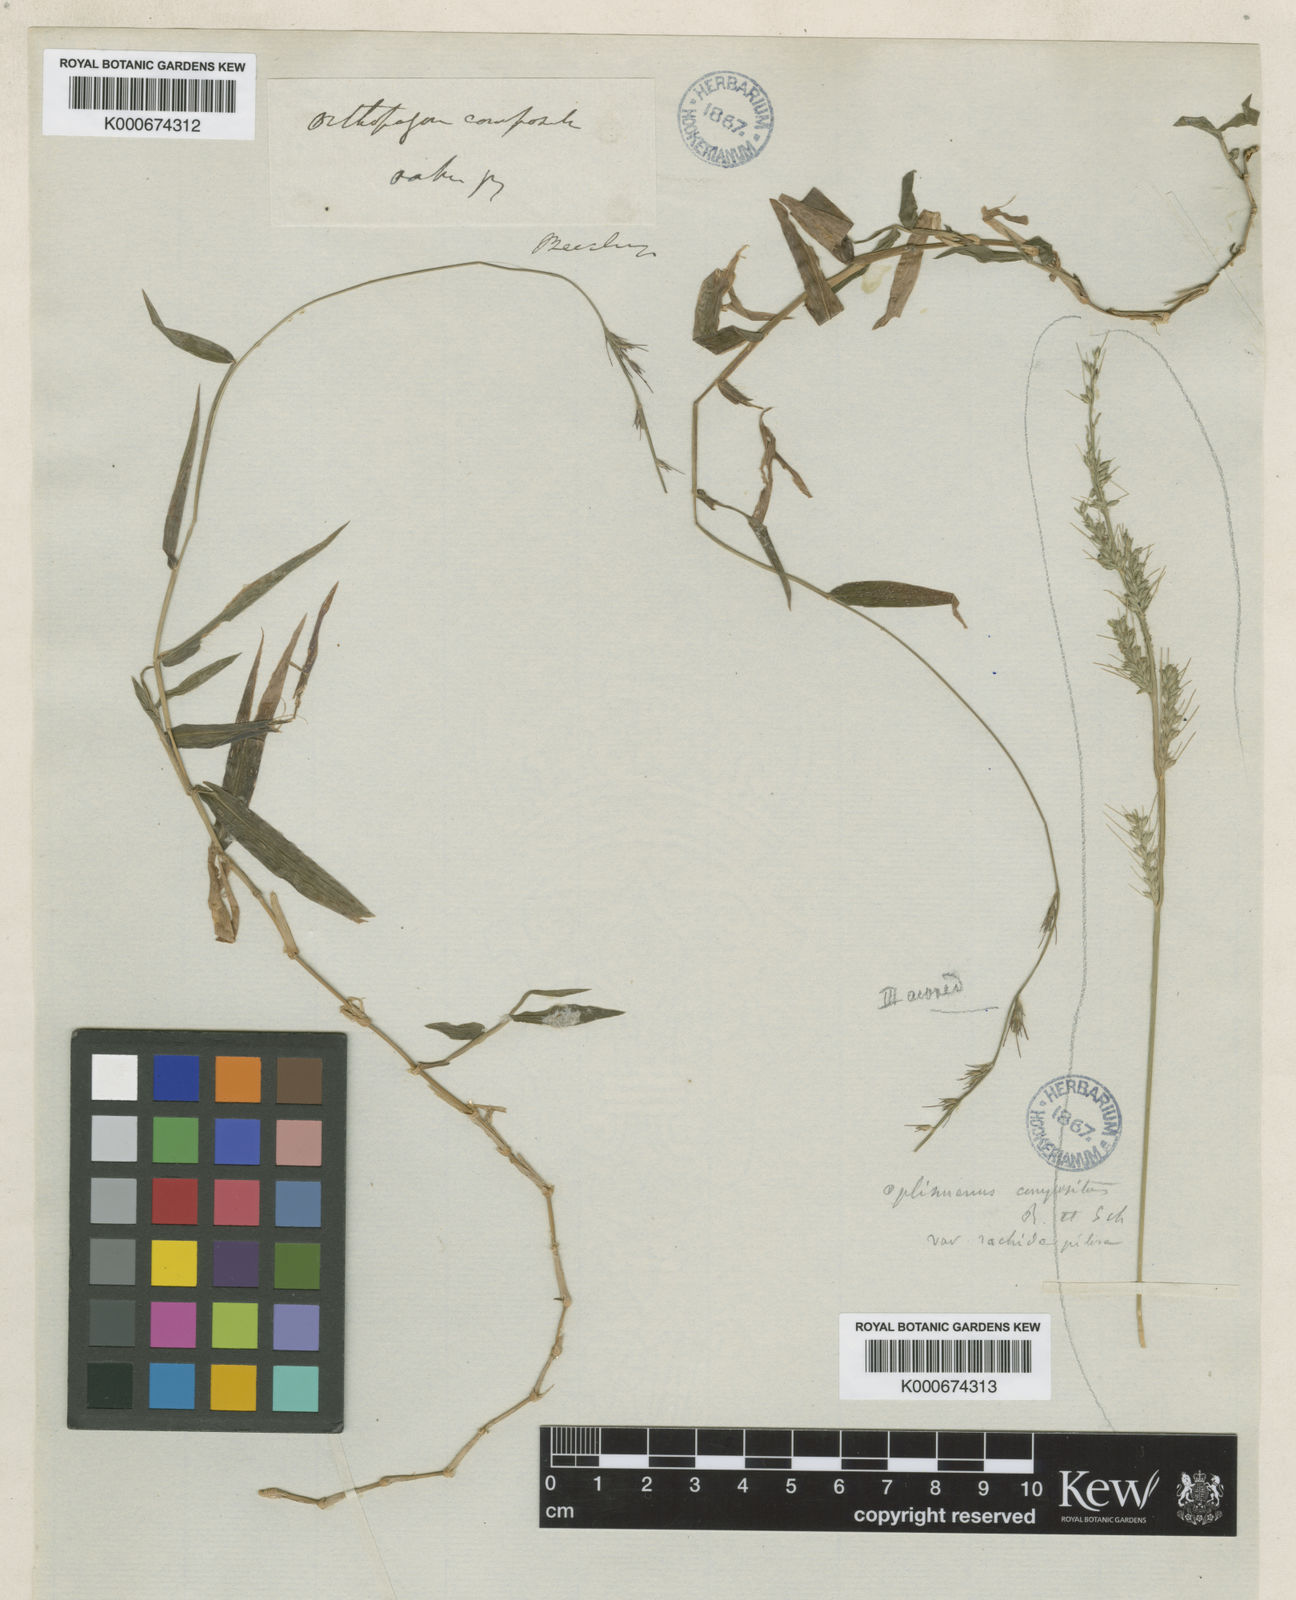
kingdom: Plantae
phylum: Tracheophyta
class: Liliopsida
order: Poales
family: Poaceae
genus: Oplismenus
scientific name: Oplismenus
